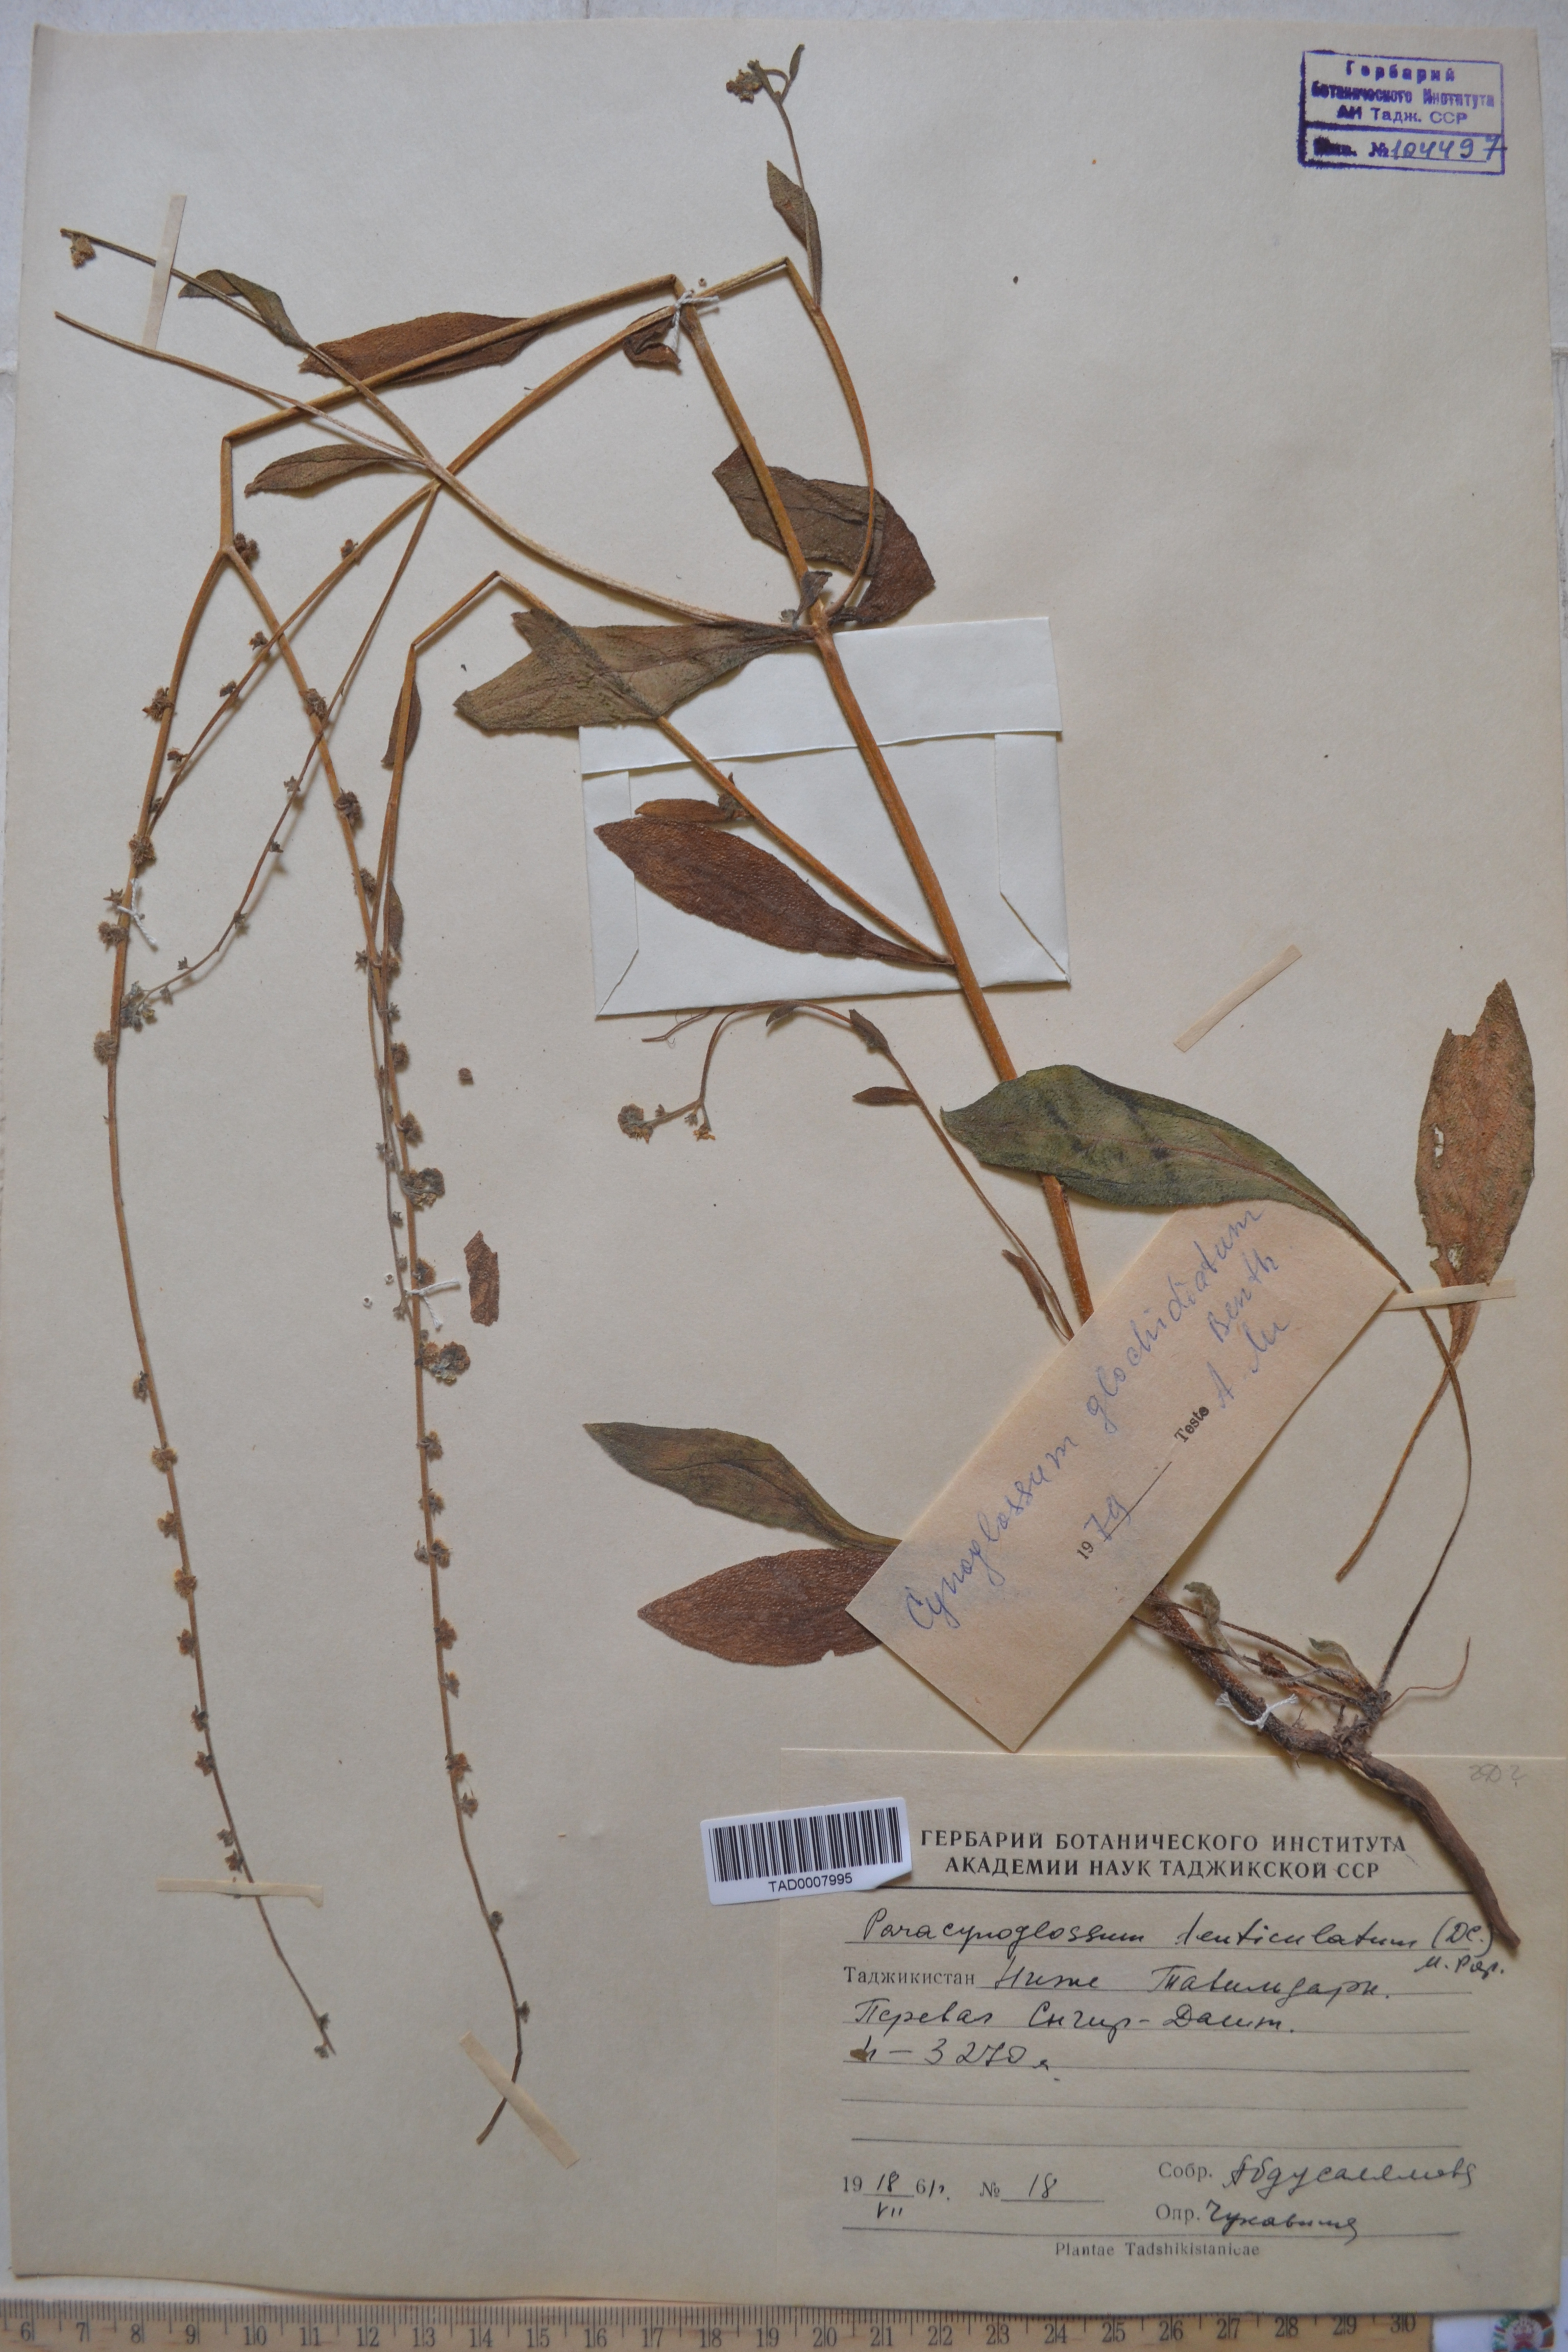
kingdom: Plantae
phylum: Tracheophyta
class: Magnoliopsida
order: Boraginales
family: Boraginaceae
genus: Paracynoglossum
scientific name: Paracynoglossum glochidiatum
